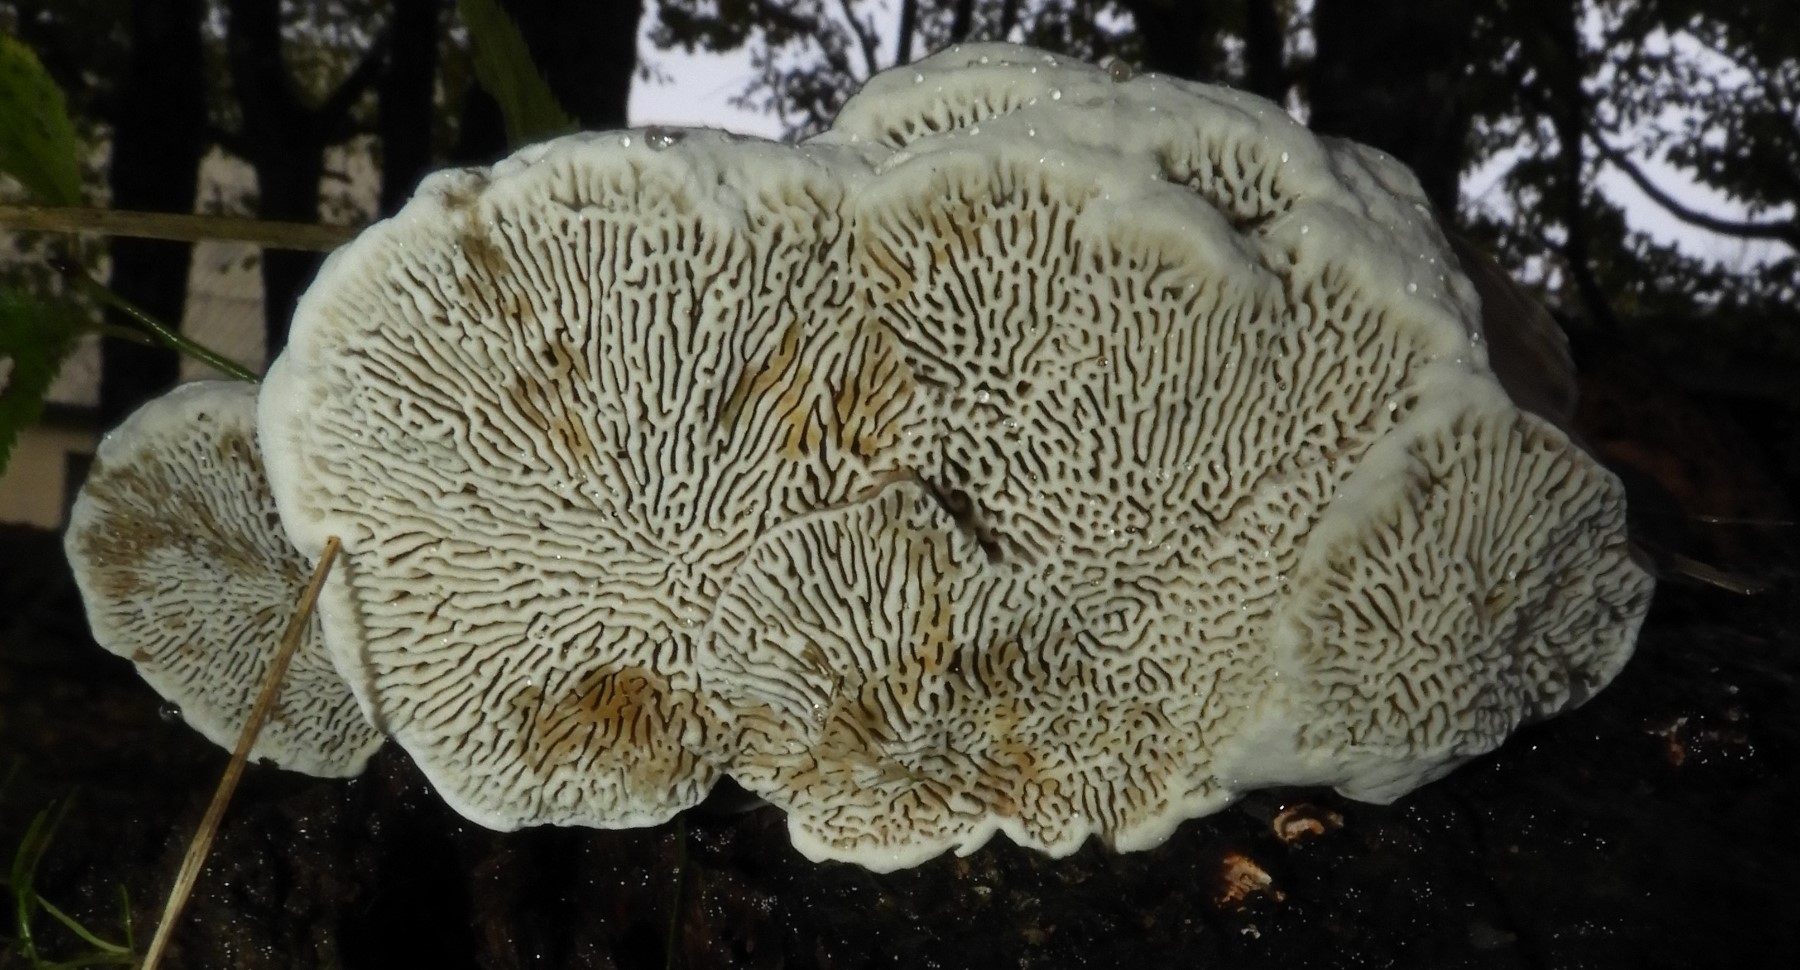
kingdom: Fungi
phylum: Basidiomycota
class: Agaricomycetes
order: Polyporales
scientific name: Polyporales
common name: poresvampordenen
